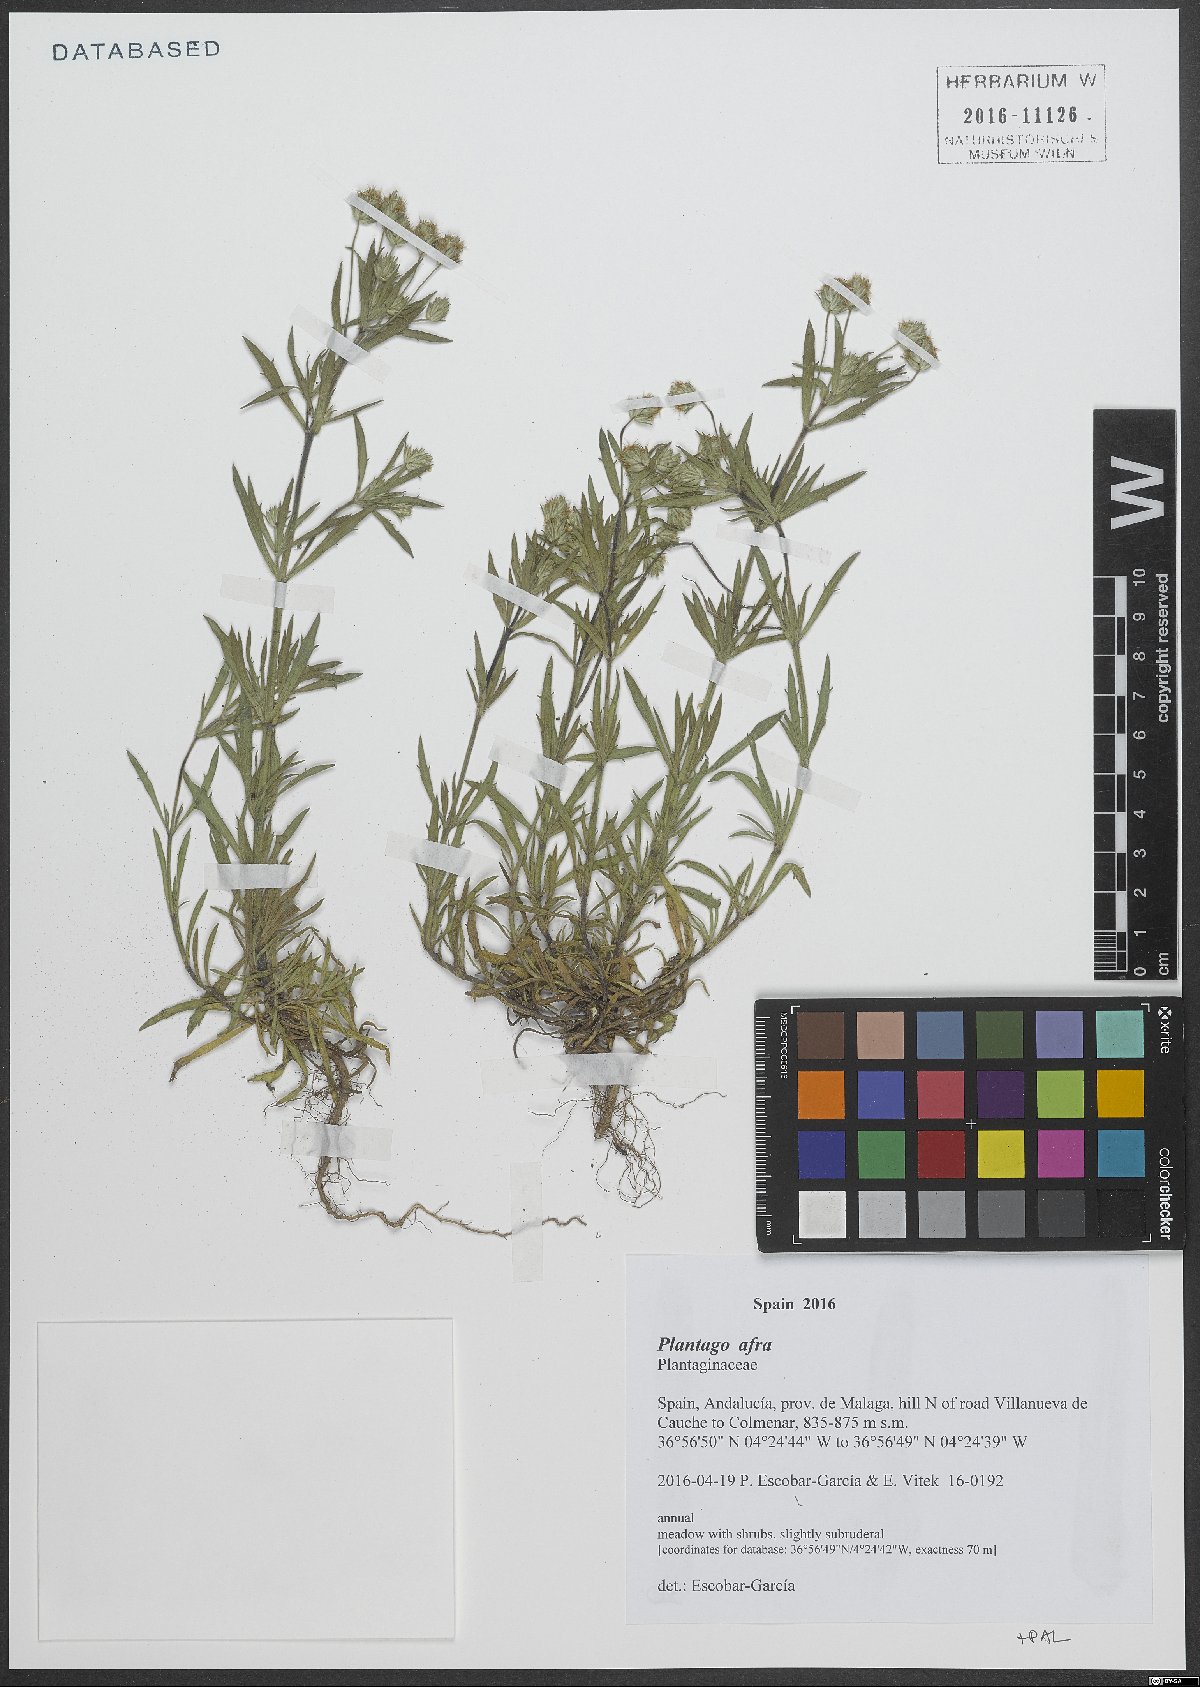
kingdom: Plantae
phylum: Tracheophyta
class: Magnoliopsida
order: Lamiales
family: Plantaginaceae
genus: Plantago
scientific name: Plantago afra
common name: Glandular plantain
